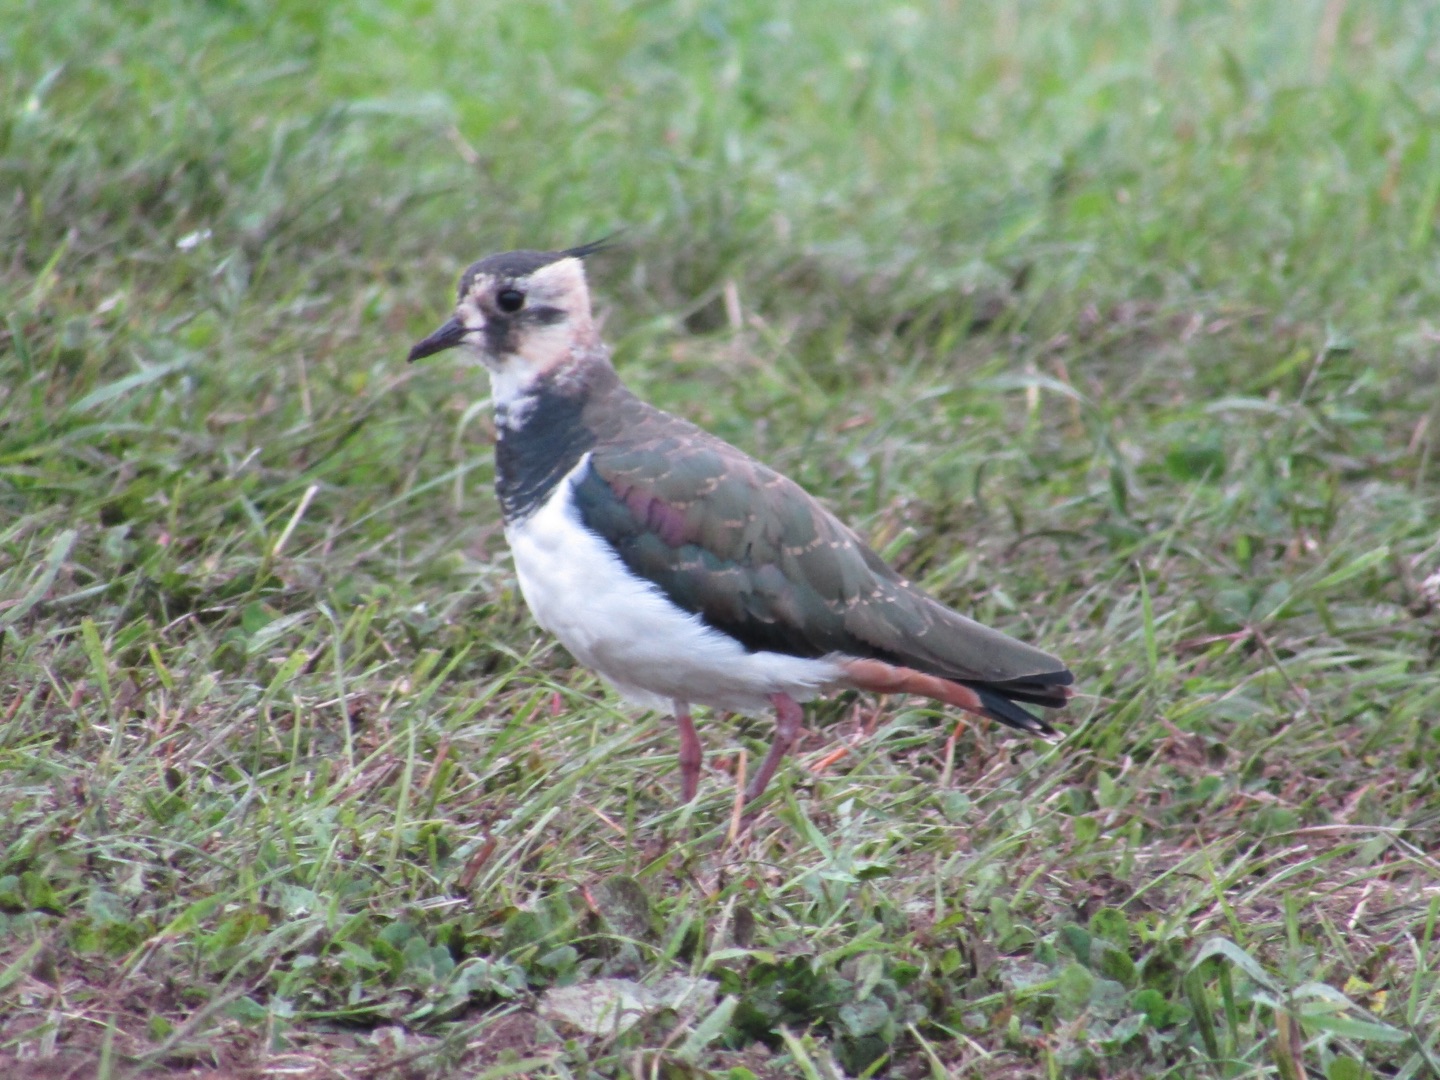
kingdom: Animalia
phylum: Chordata
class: Aves
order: Charadriiformes
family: Charadriidae
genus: Vanellus
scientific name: Vanellus vanellus
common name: Vibe
